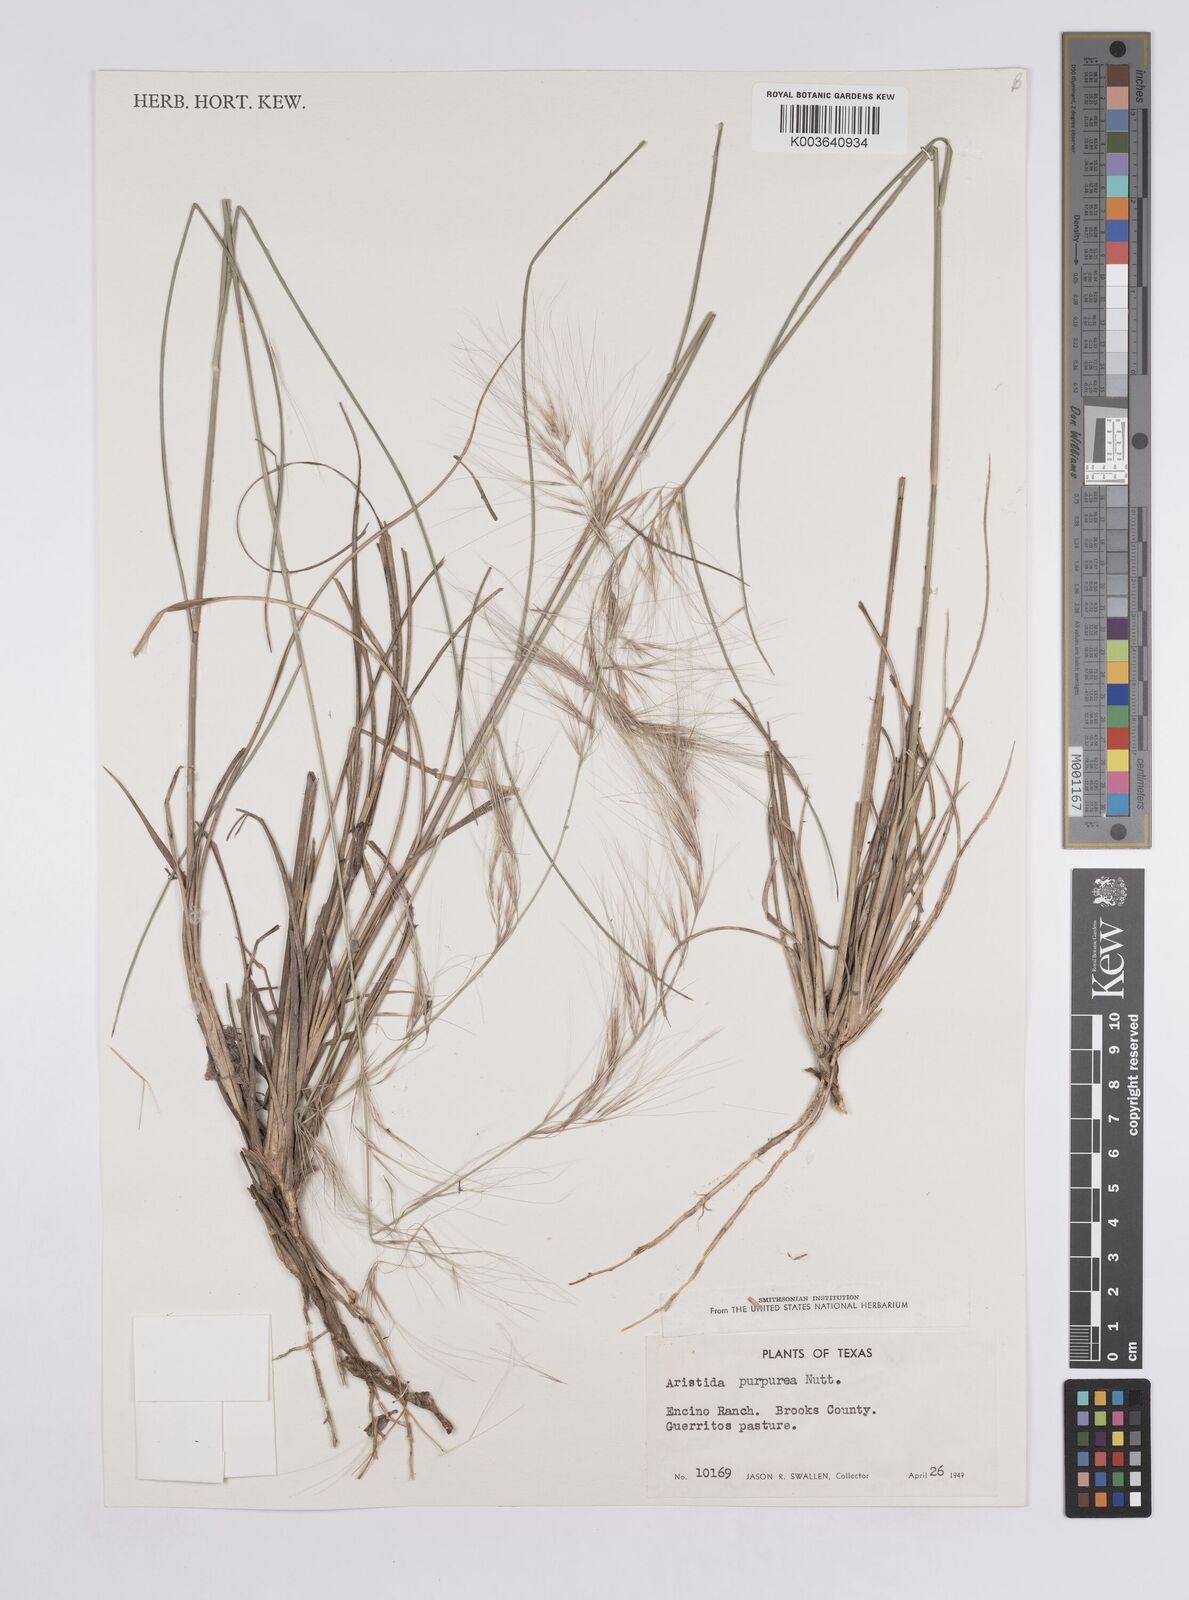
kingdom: Plantae
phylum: Tracheophyta
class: Liliopsida
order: Poales
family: Poaceae
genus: Aristida
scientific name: Aristida purpurea
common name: Purple threeawn
